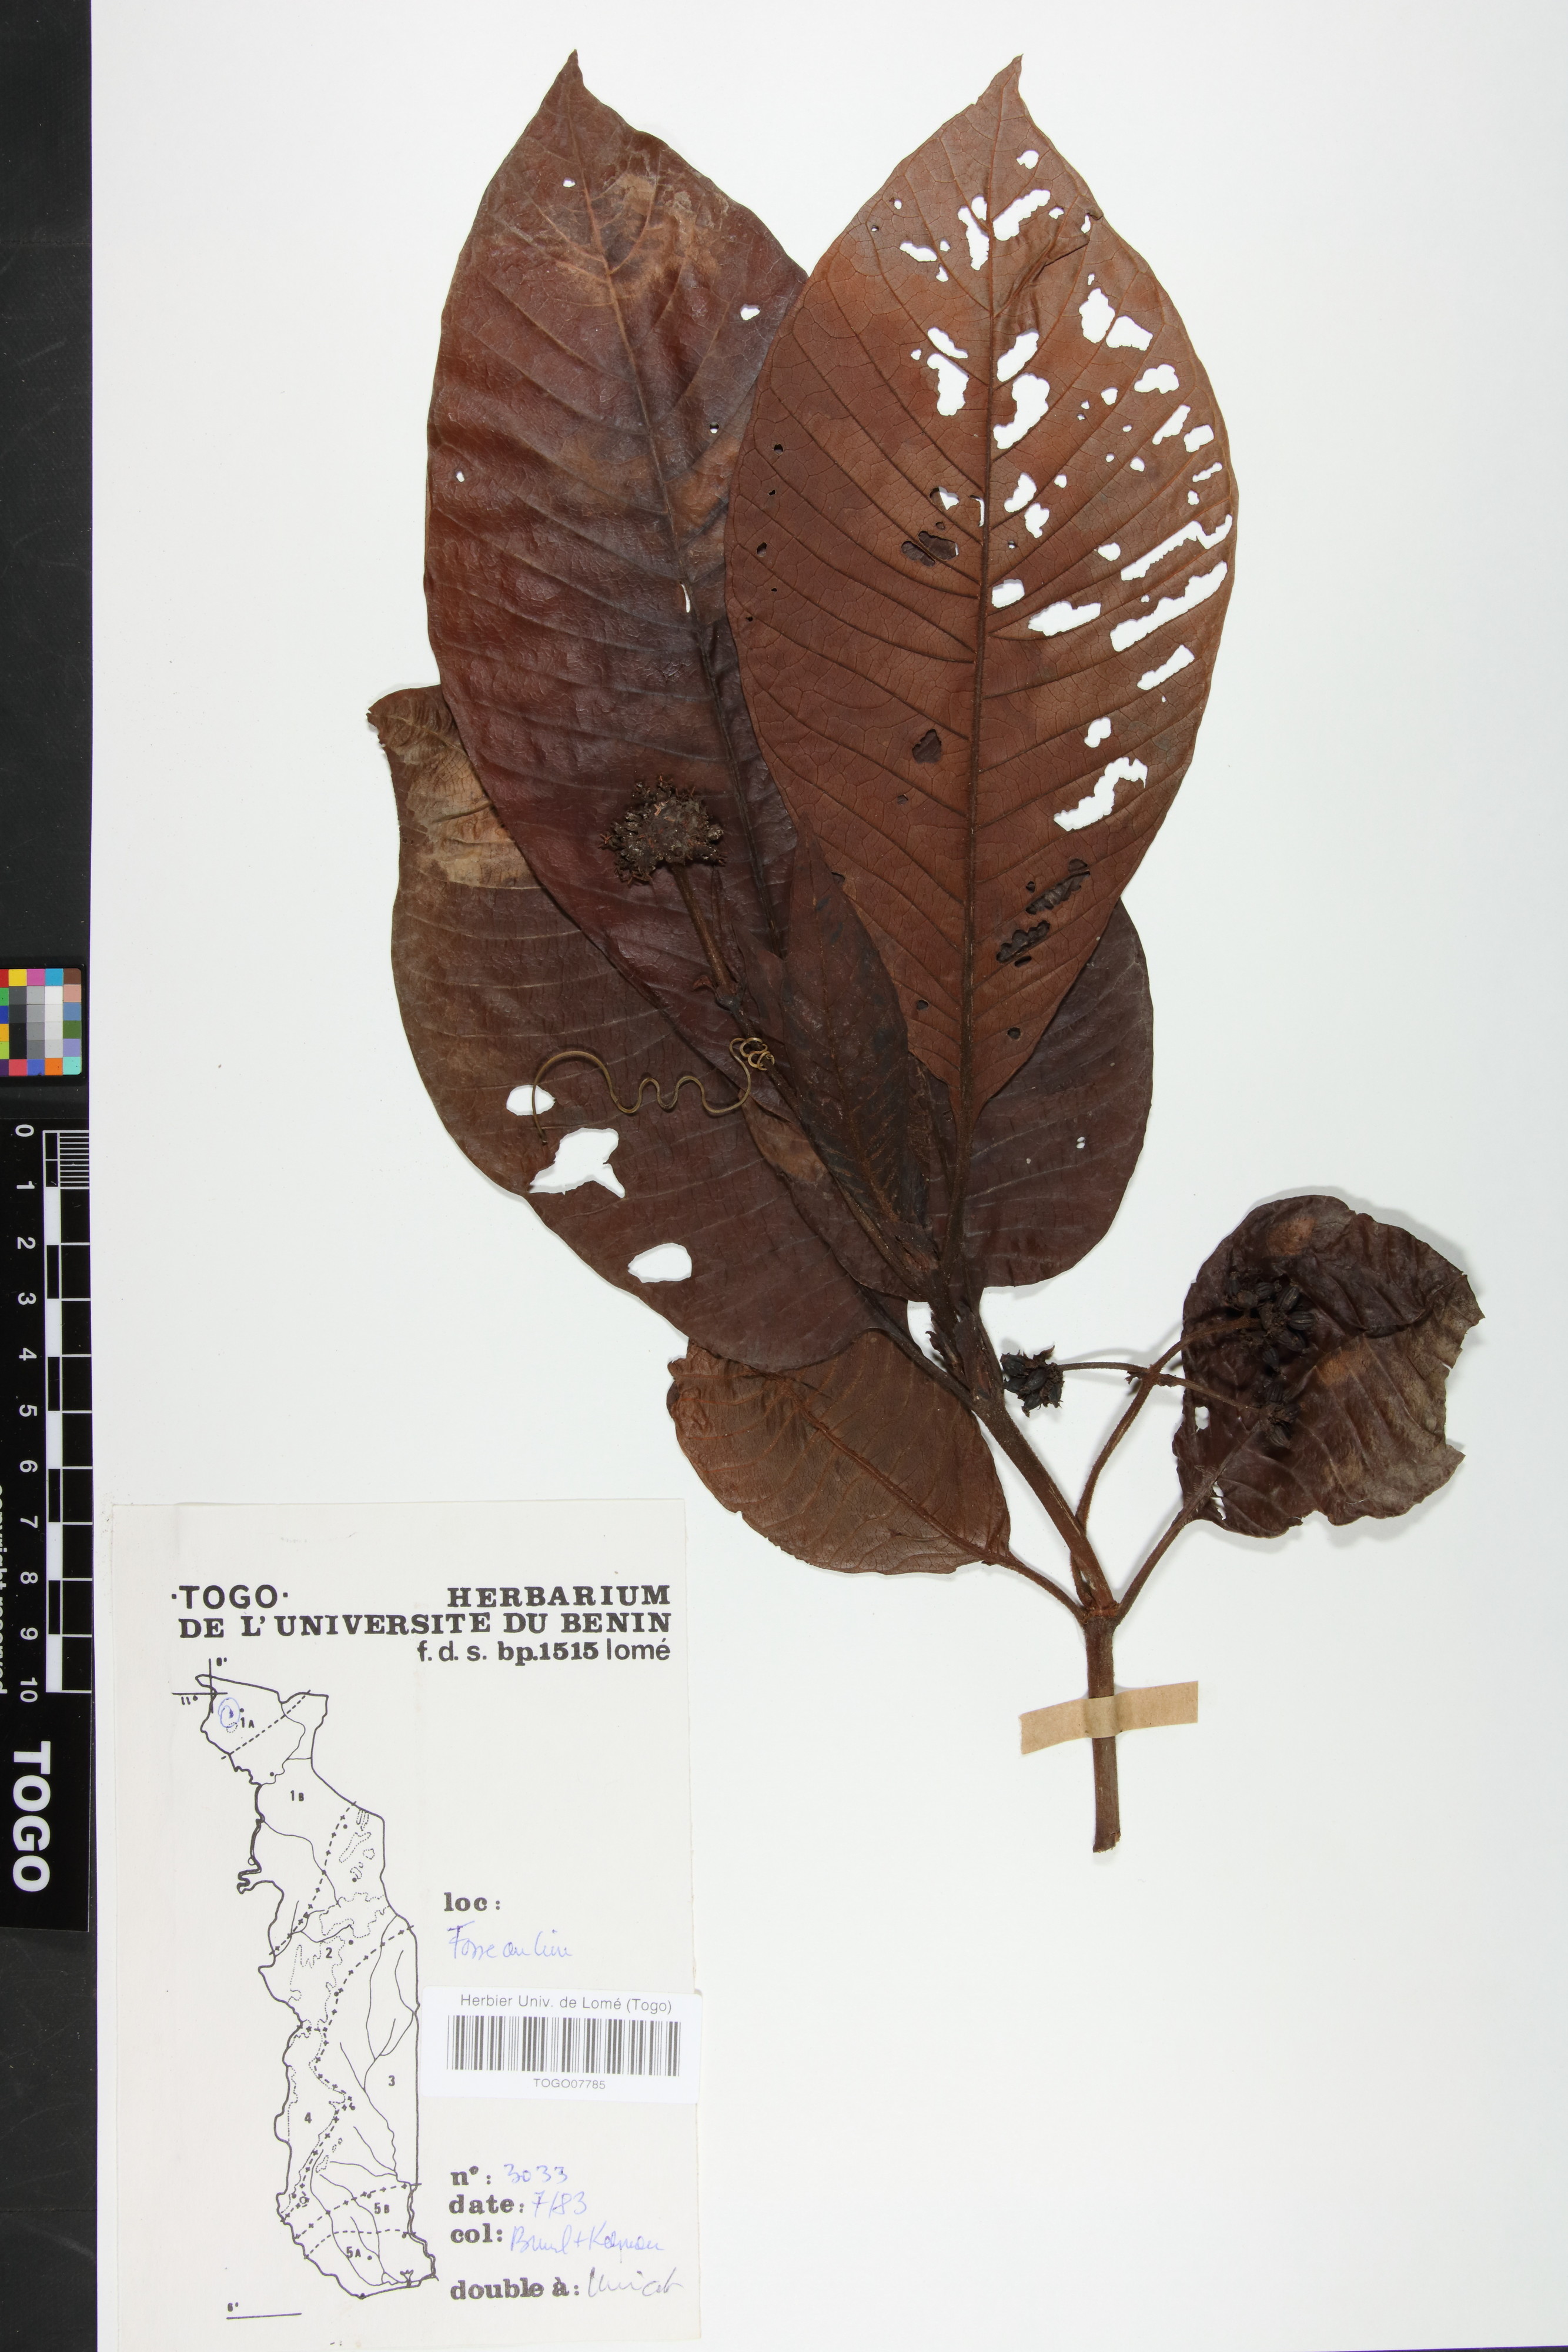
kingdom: Plantae
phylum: Tracheophyta
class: Magnoliopsida
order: Gentianales
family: Rubiaceae
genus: Psychotria
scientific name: Psychotria vogeliana
